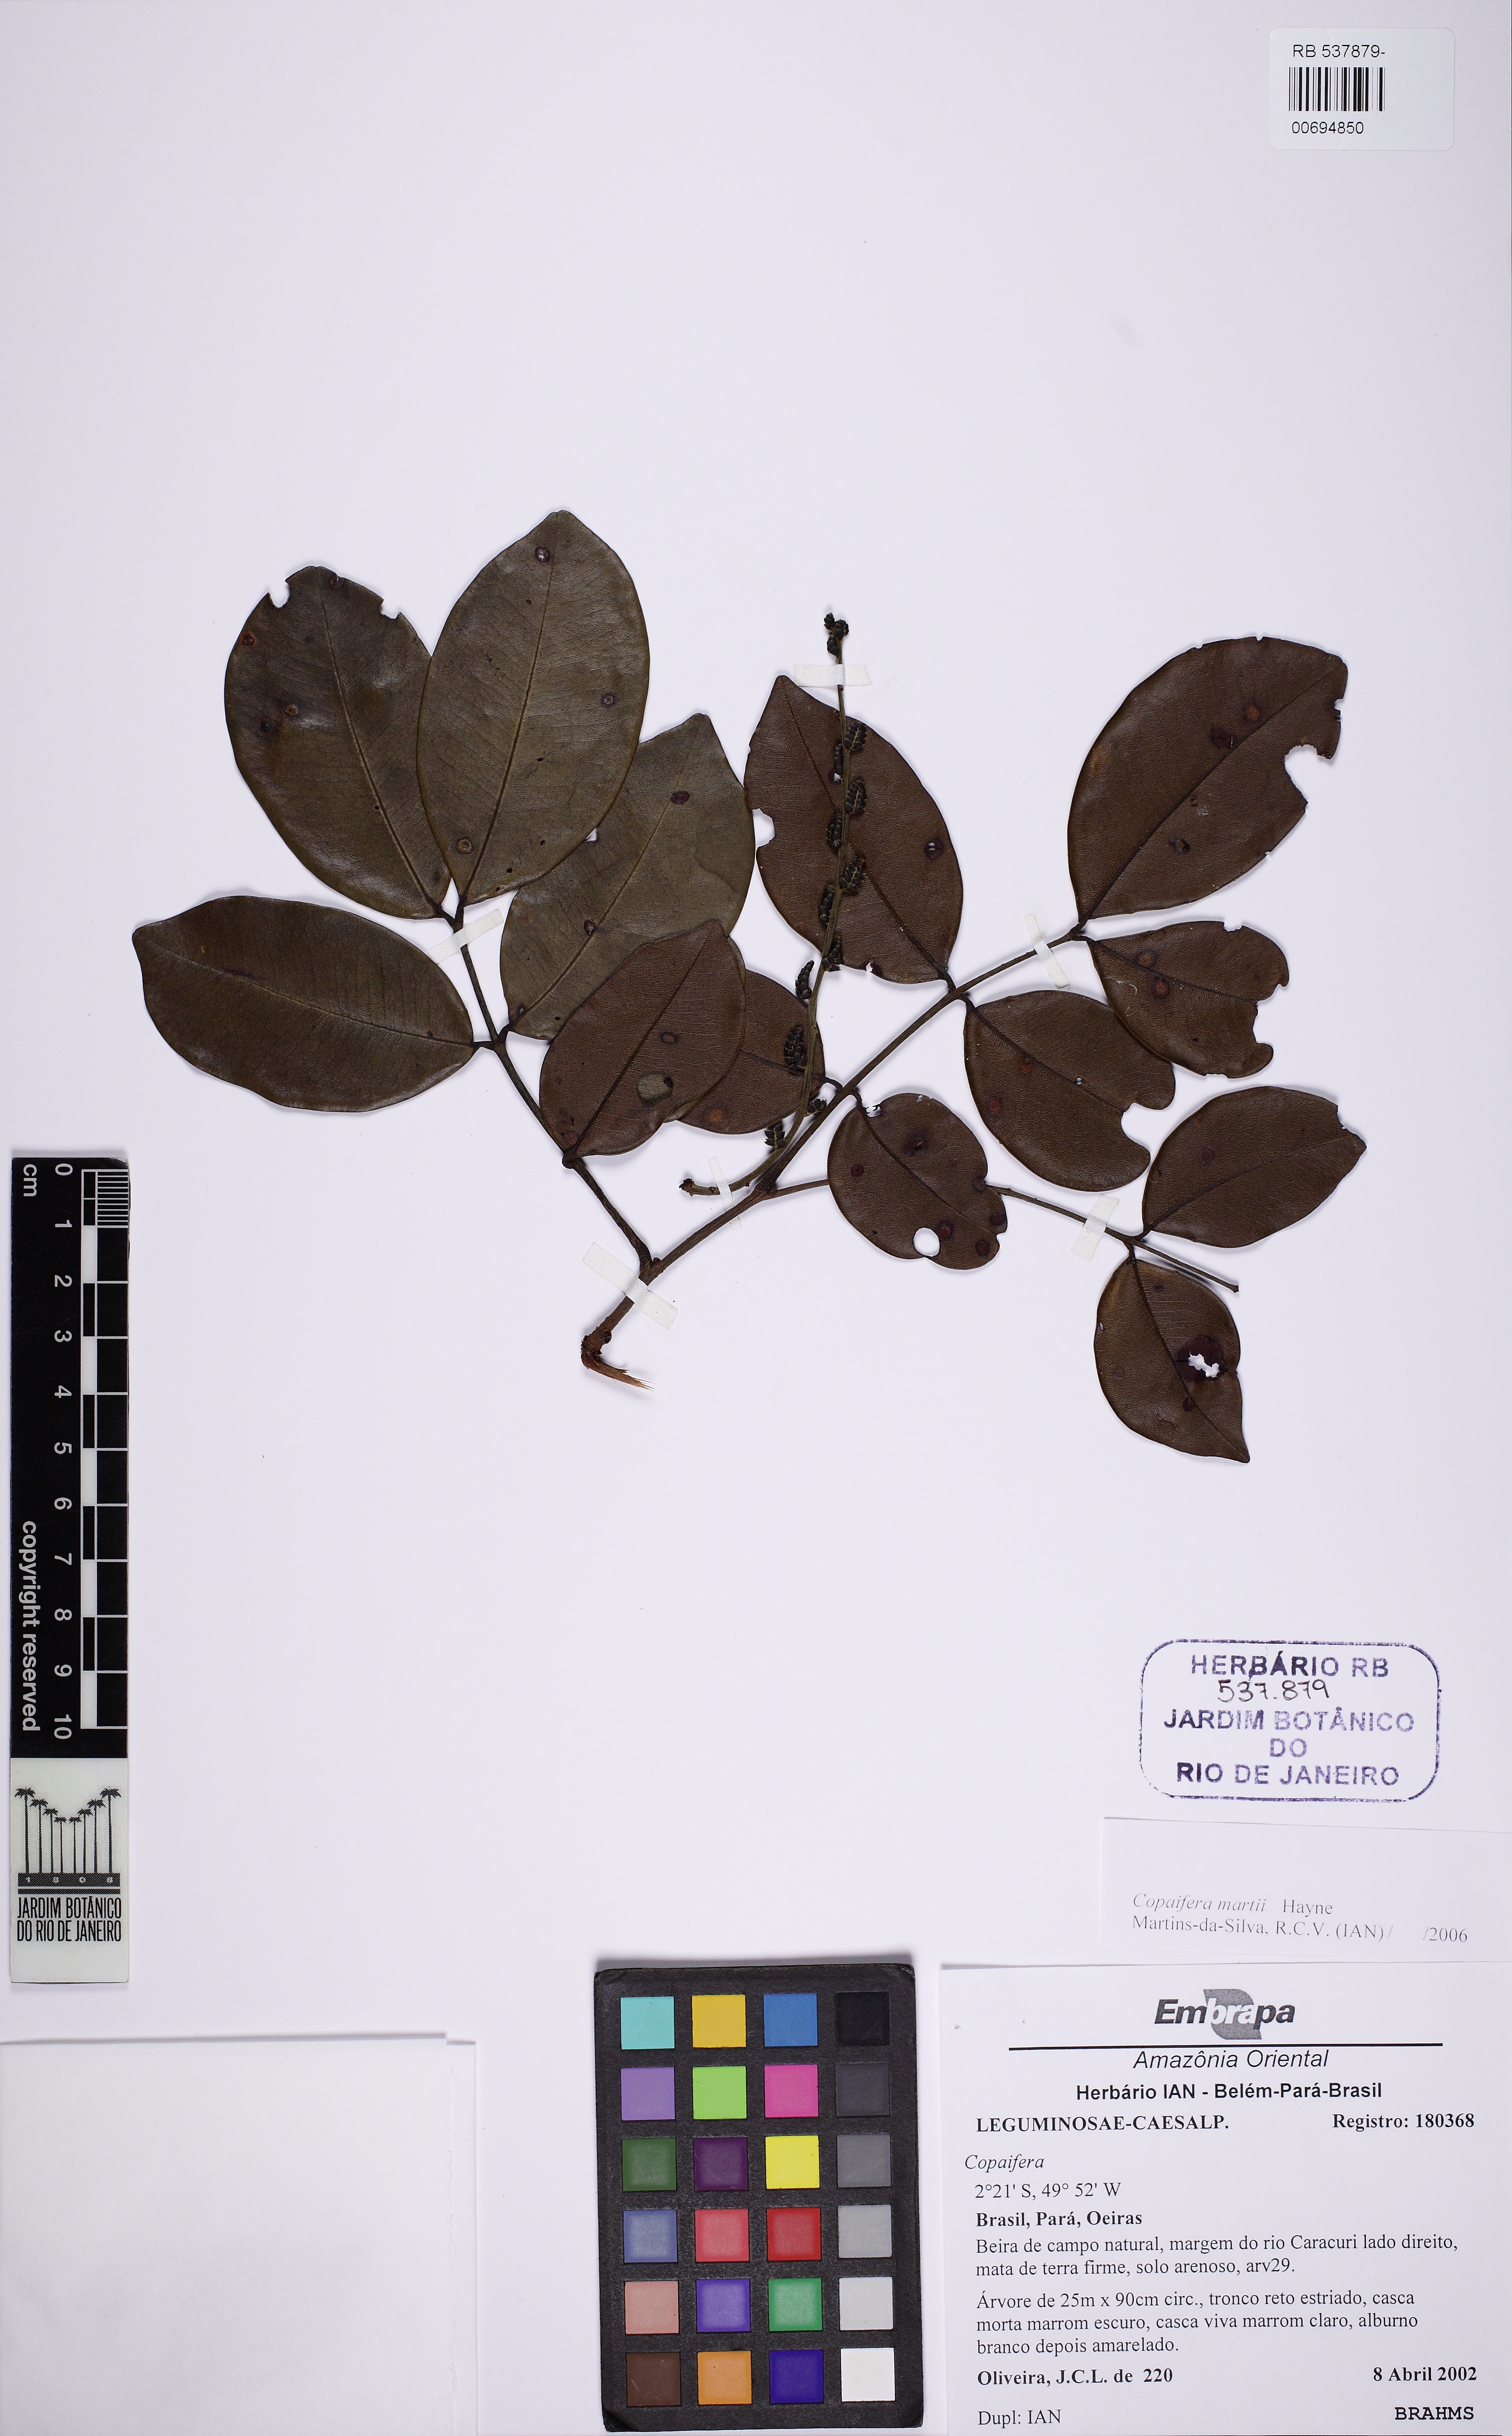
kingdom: Plantae
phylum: Tracheophyta
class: Magnoliopsida
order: Fabales
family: Fabaceae
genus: Copaifera
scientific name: Copaifera martii
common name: Copaiba
